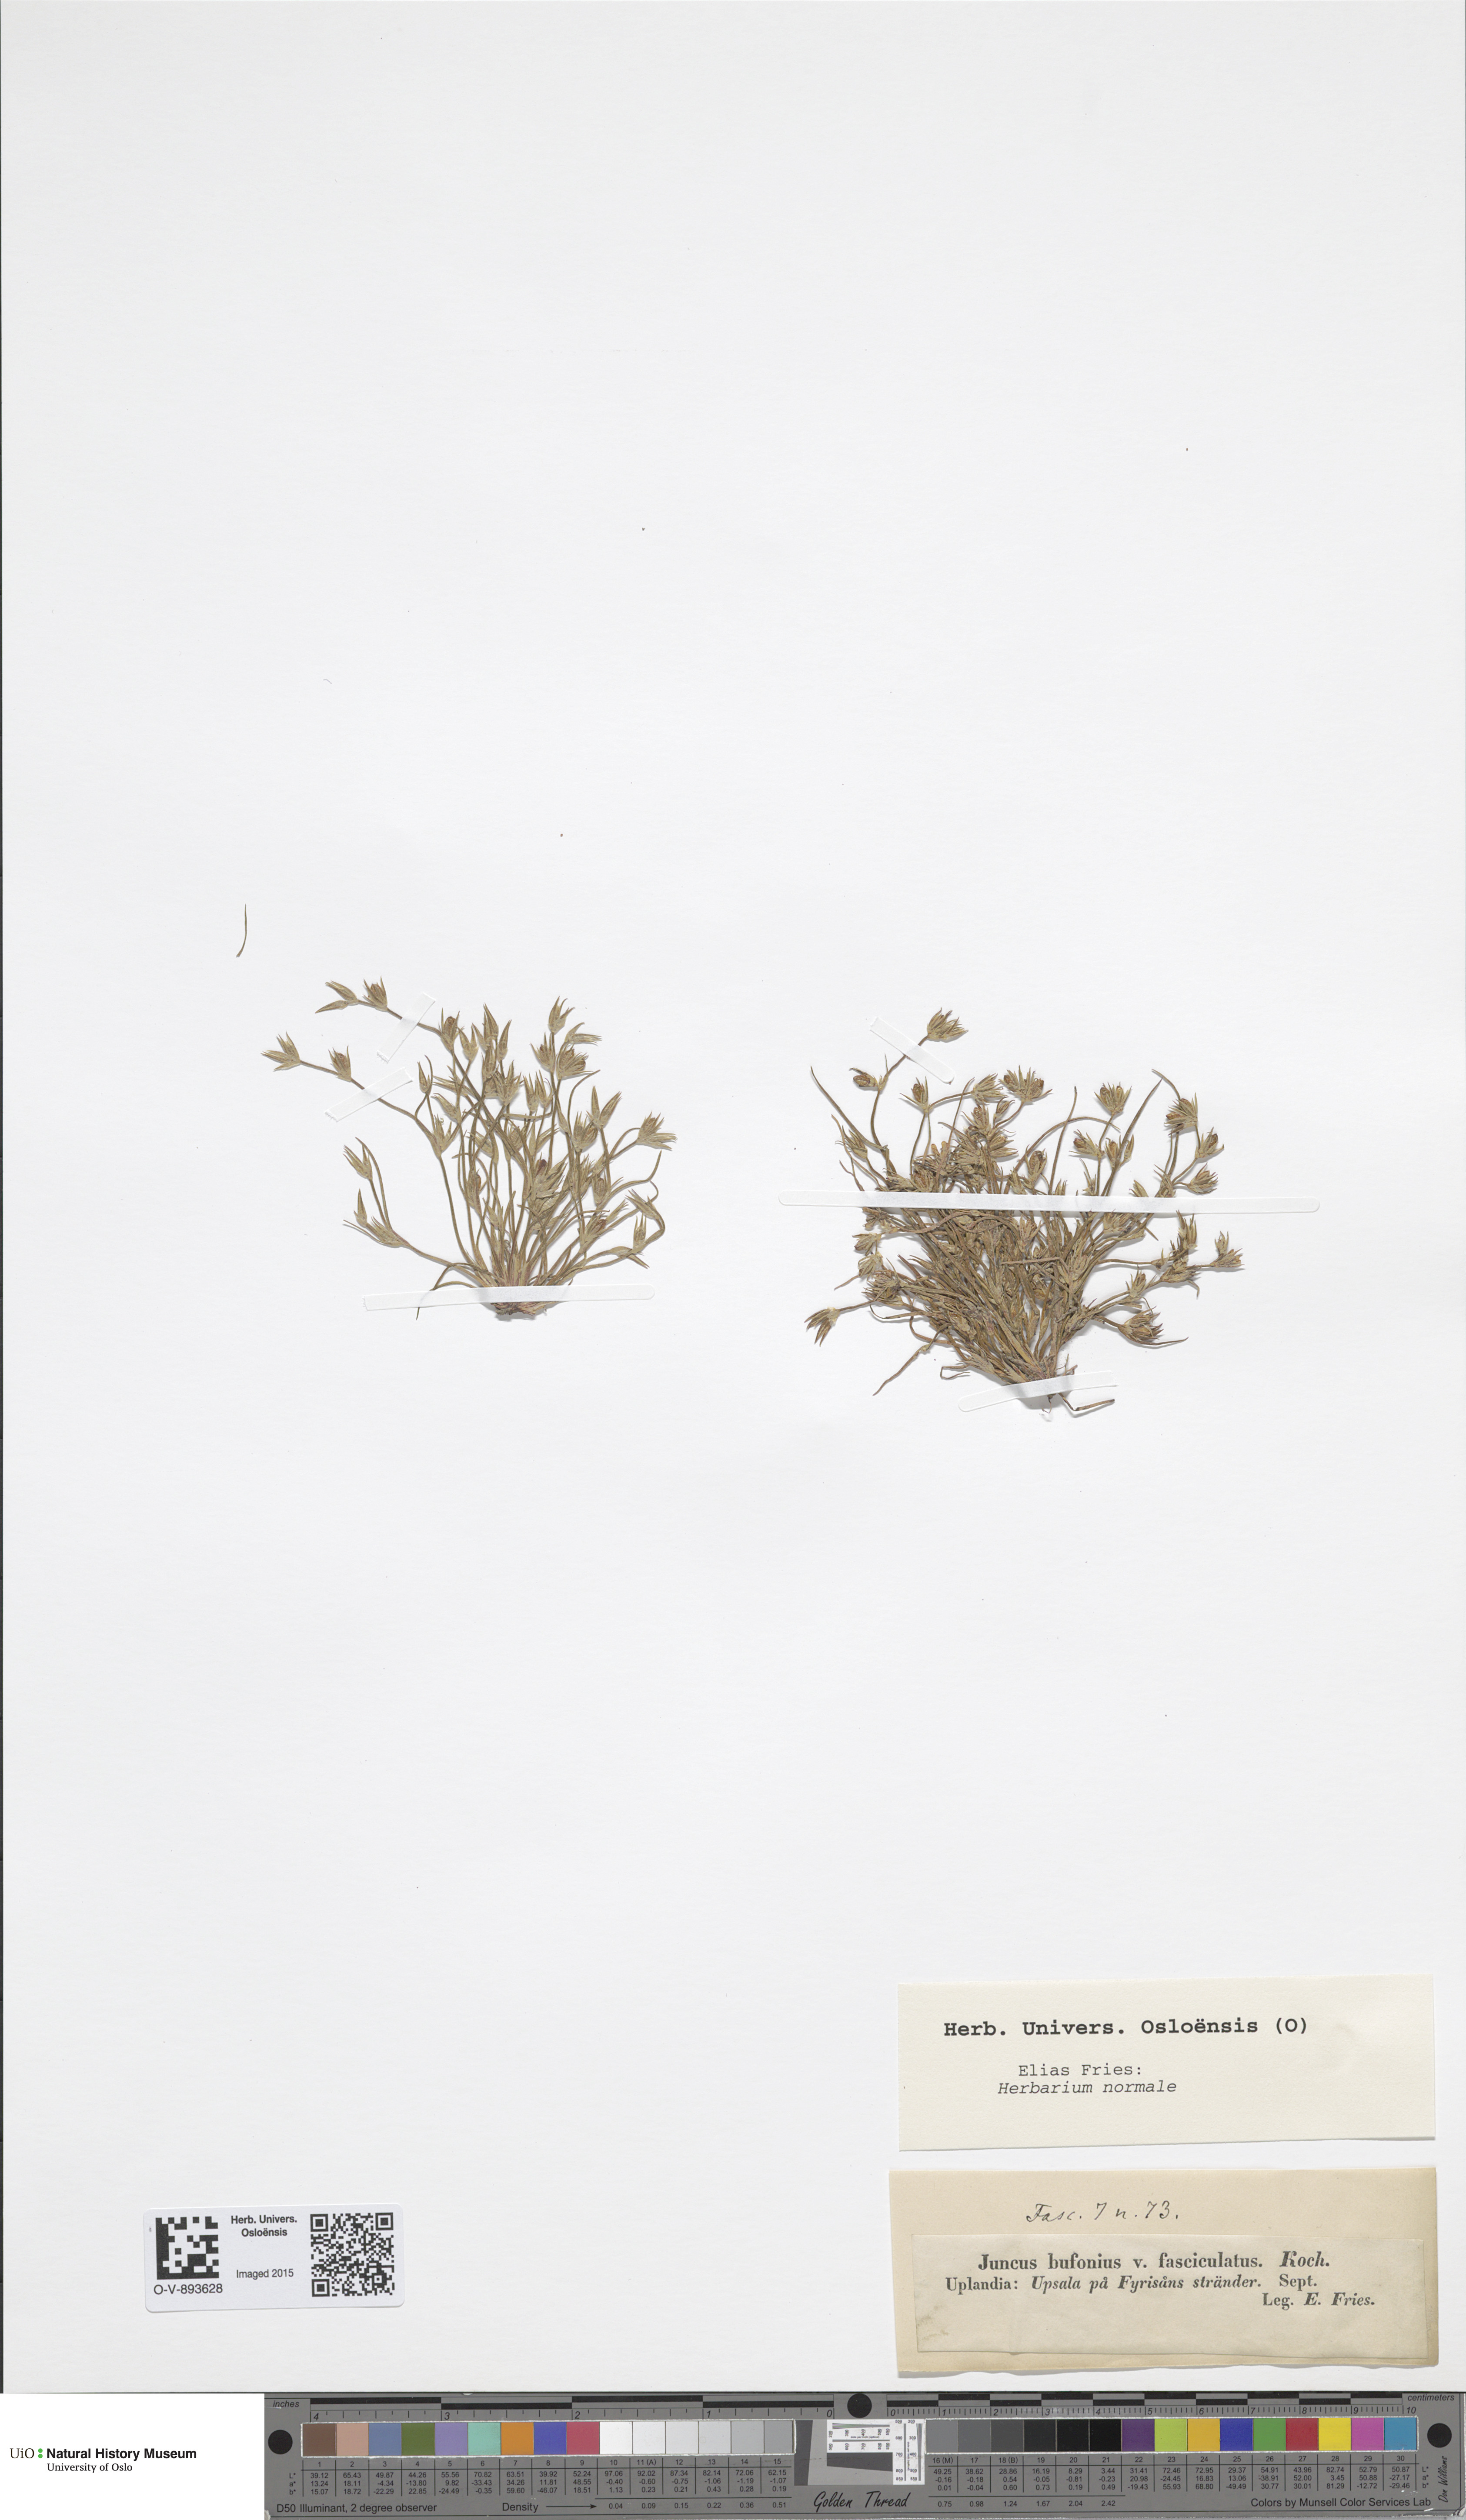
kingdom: Plantae
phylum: Tracheophyta
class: Liliopsida
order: Poales
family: Juncaceae
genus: Juncus
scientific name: Juncus bufonius
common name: Toad rush
